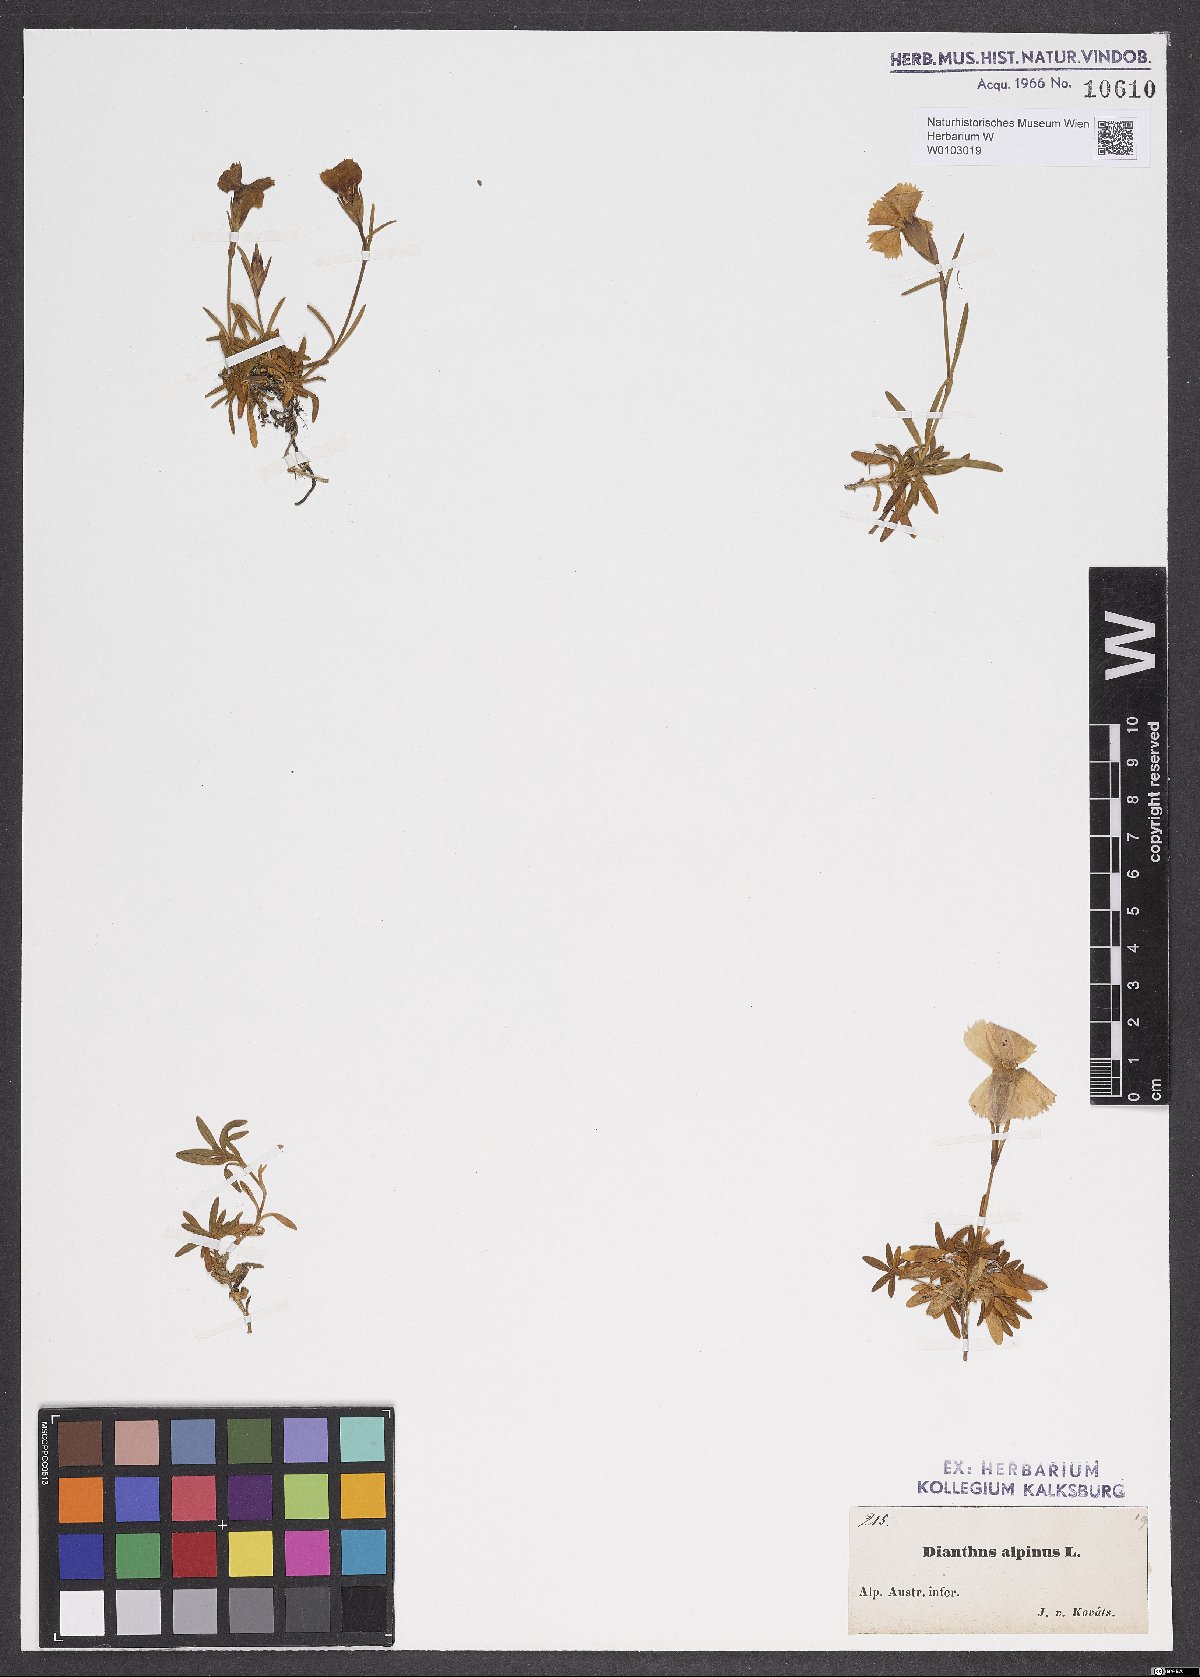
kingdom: Plantae
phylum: Tracheophyta
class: Magnoliopsida
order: Caryophyllales
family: Caryophyllaceae
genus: Dianthus
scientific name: Dianthus alpinus
